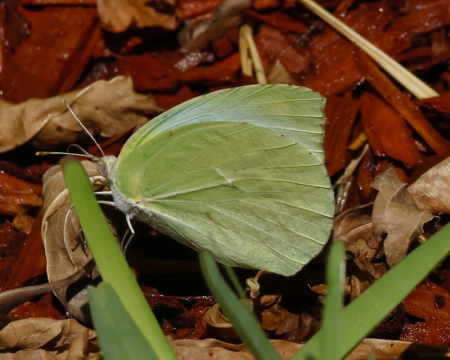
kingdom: Animalia
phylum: Arthropoda
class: Insecta
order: Lepidoptera
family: Pieridae
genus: Kricogonia
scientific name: Kricogonia lyside
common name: Lyside Sulphur
